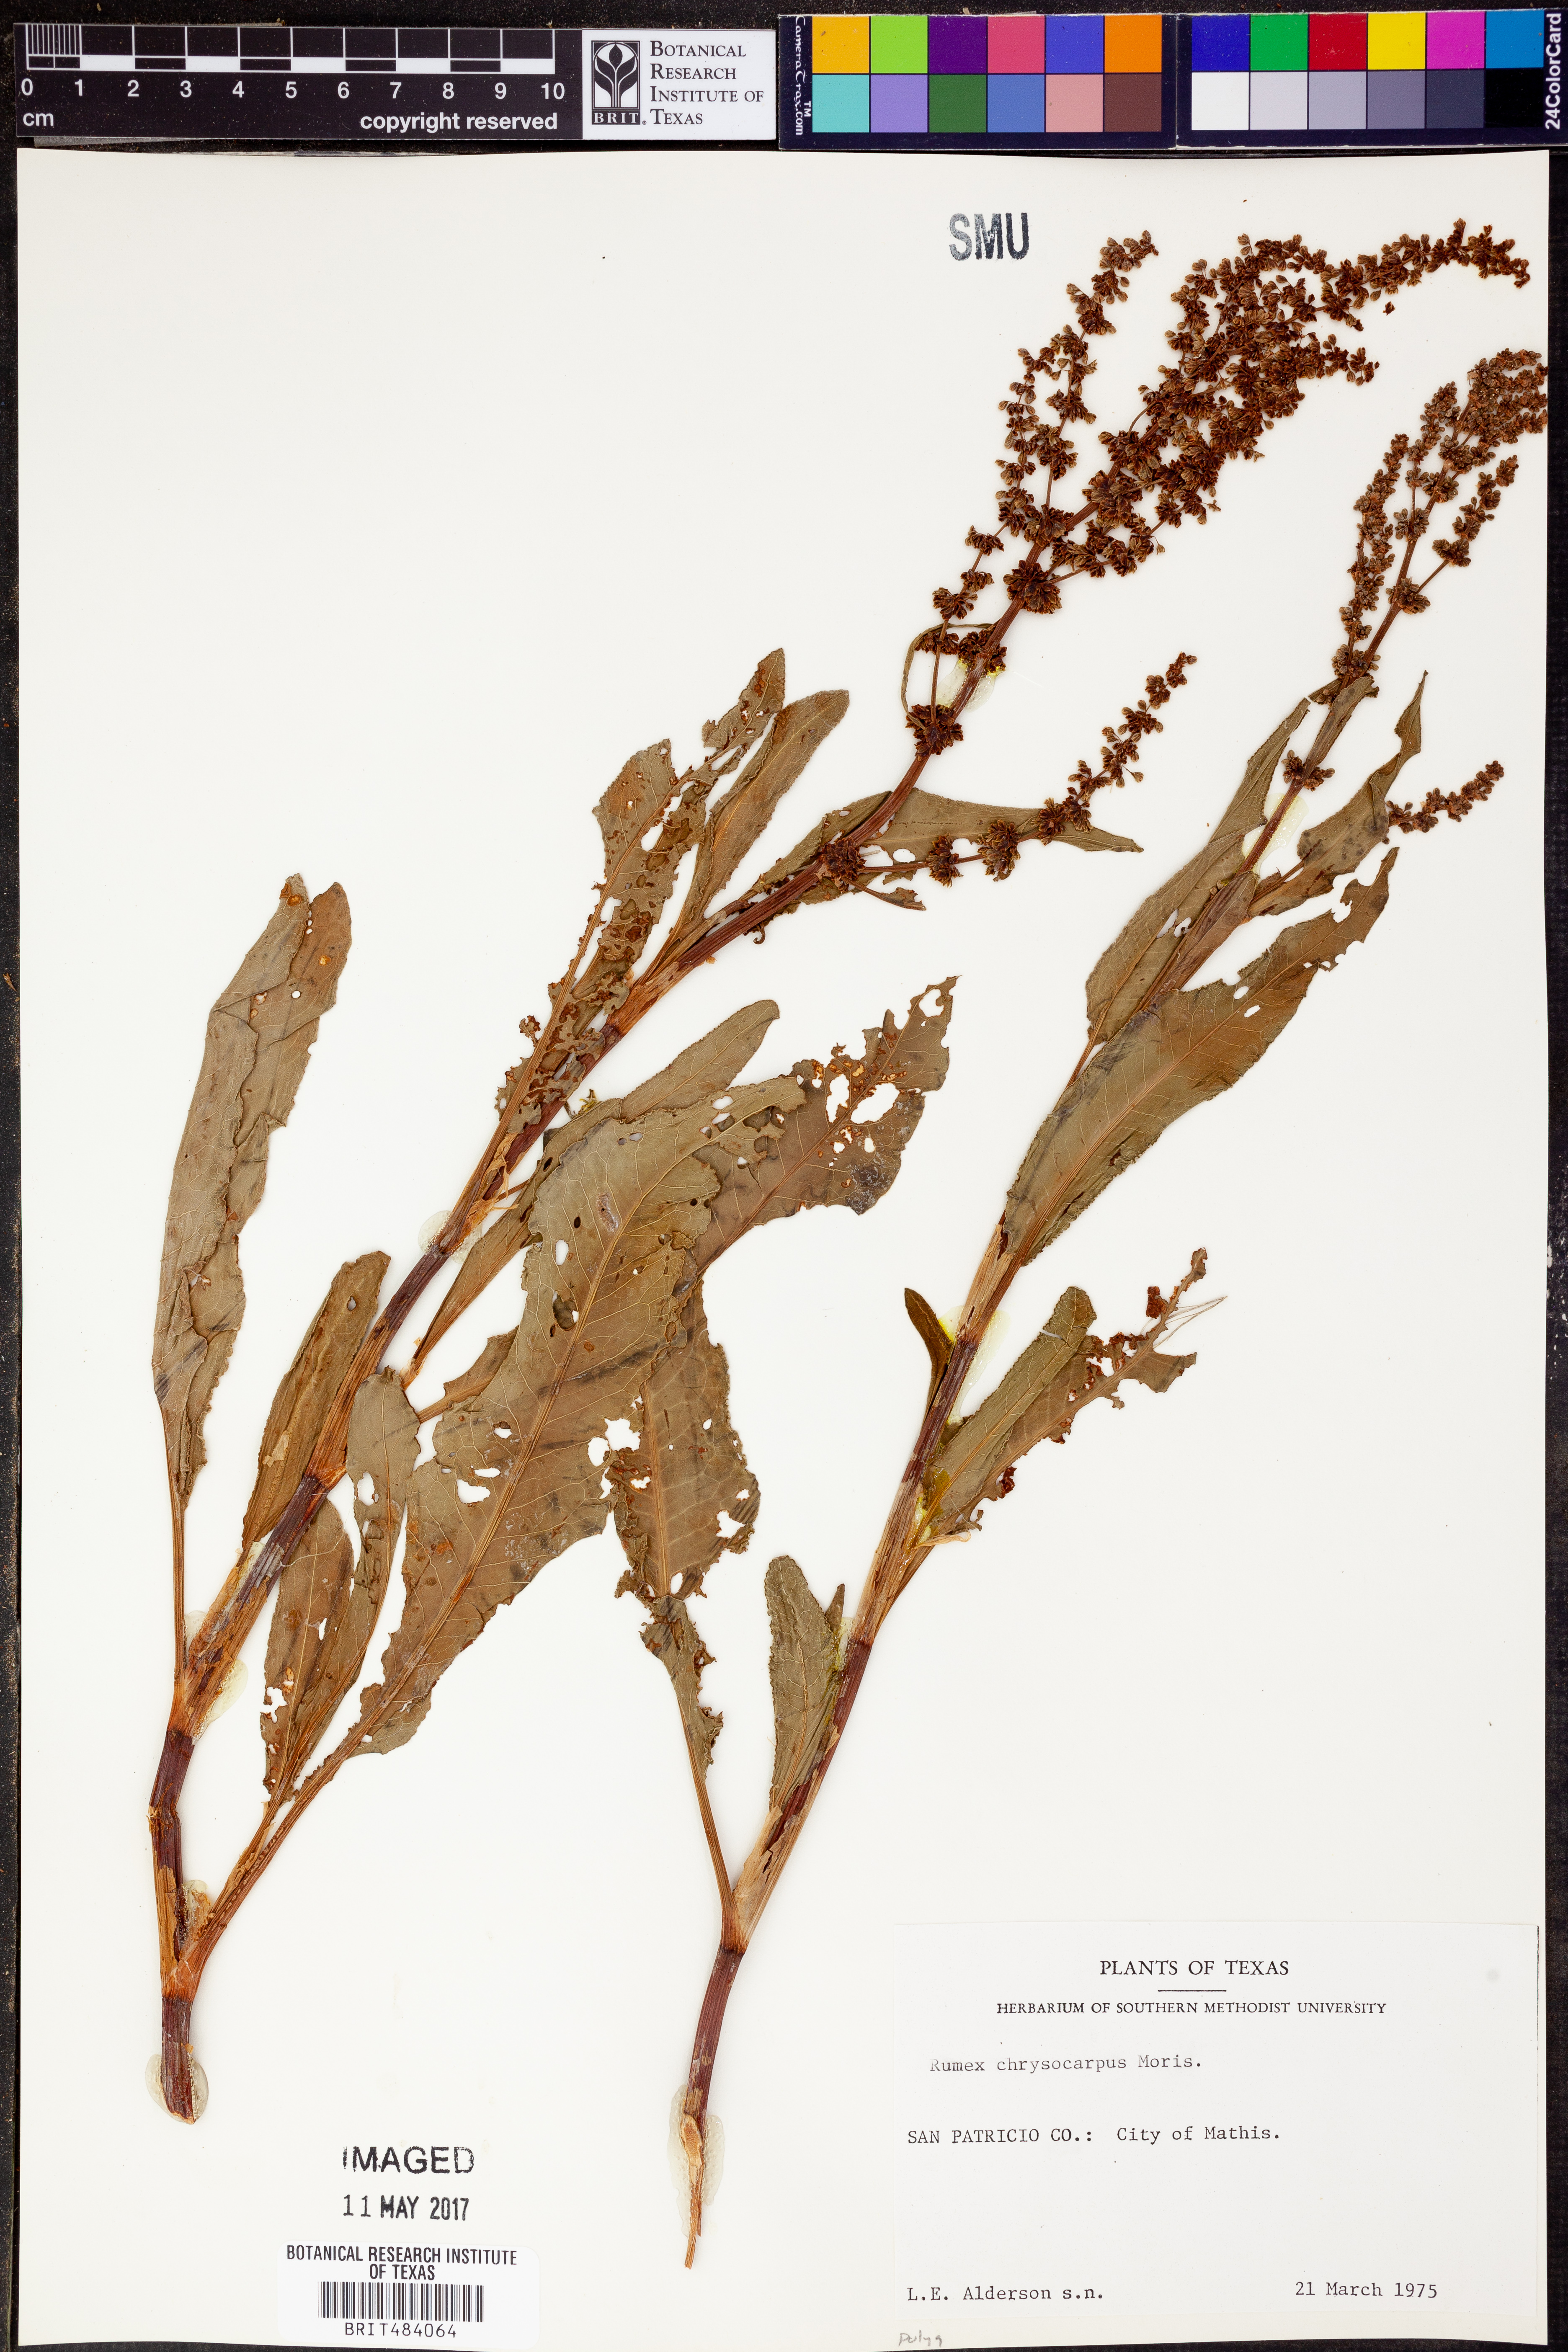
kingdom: Plantae
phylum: Tracheophyta
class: Magnoliopsida
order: Caryophyllales
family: Polygonaceae
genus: Rumex
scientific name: Rumex chrysocarpus
